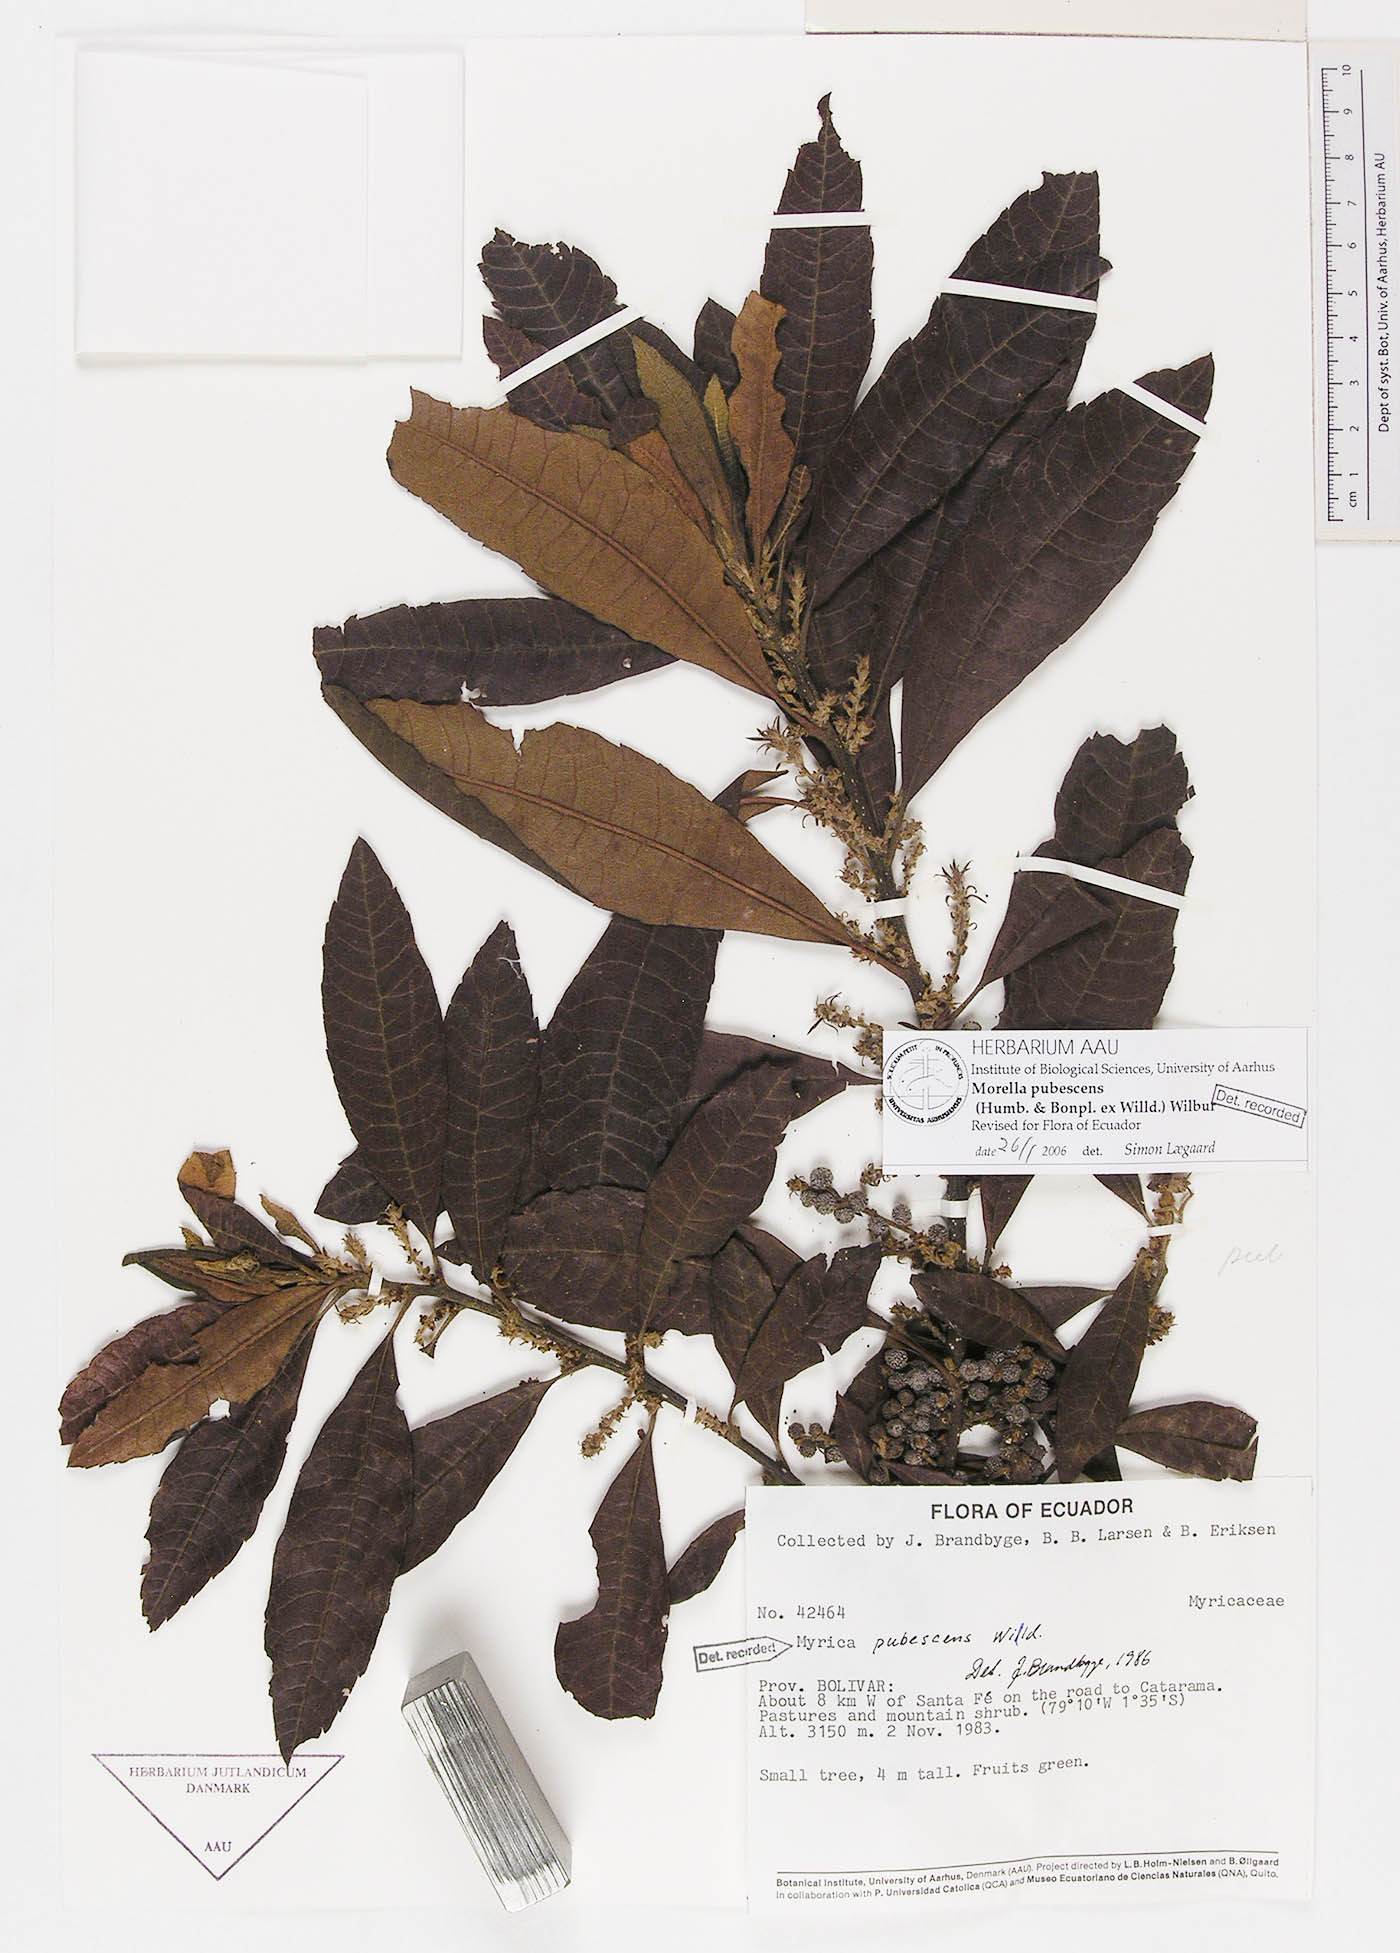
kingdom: Plantae
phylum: Tracheophyta
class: Magnoliopsida
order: Fagales
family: Myricaceae
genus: Morella
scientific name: Morella pubescens
